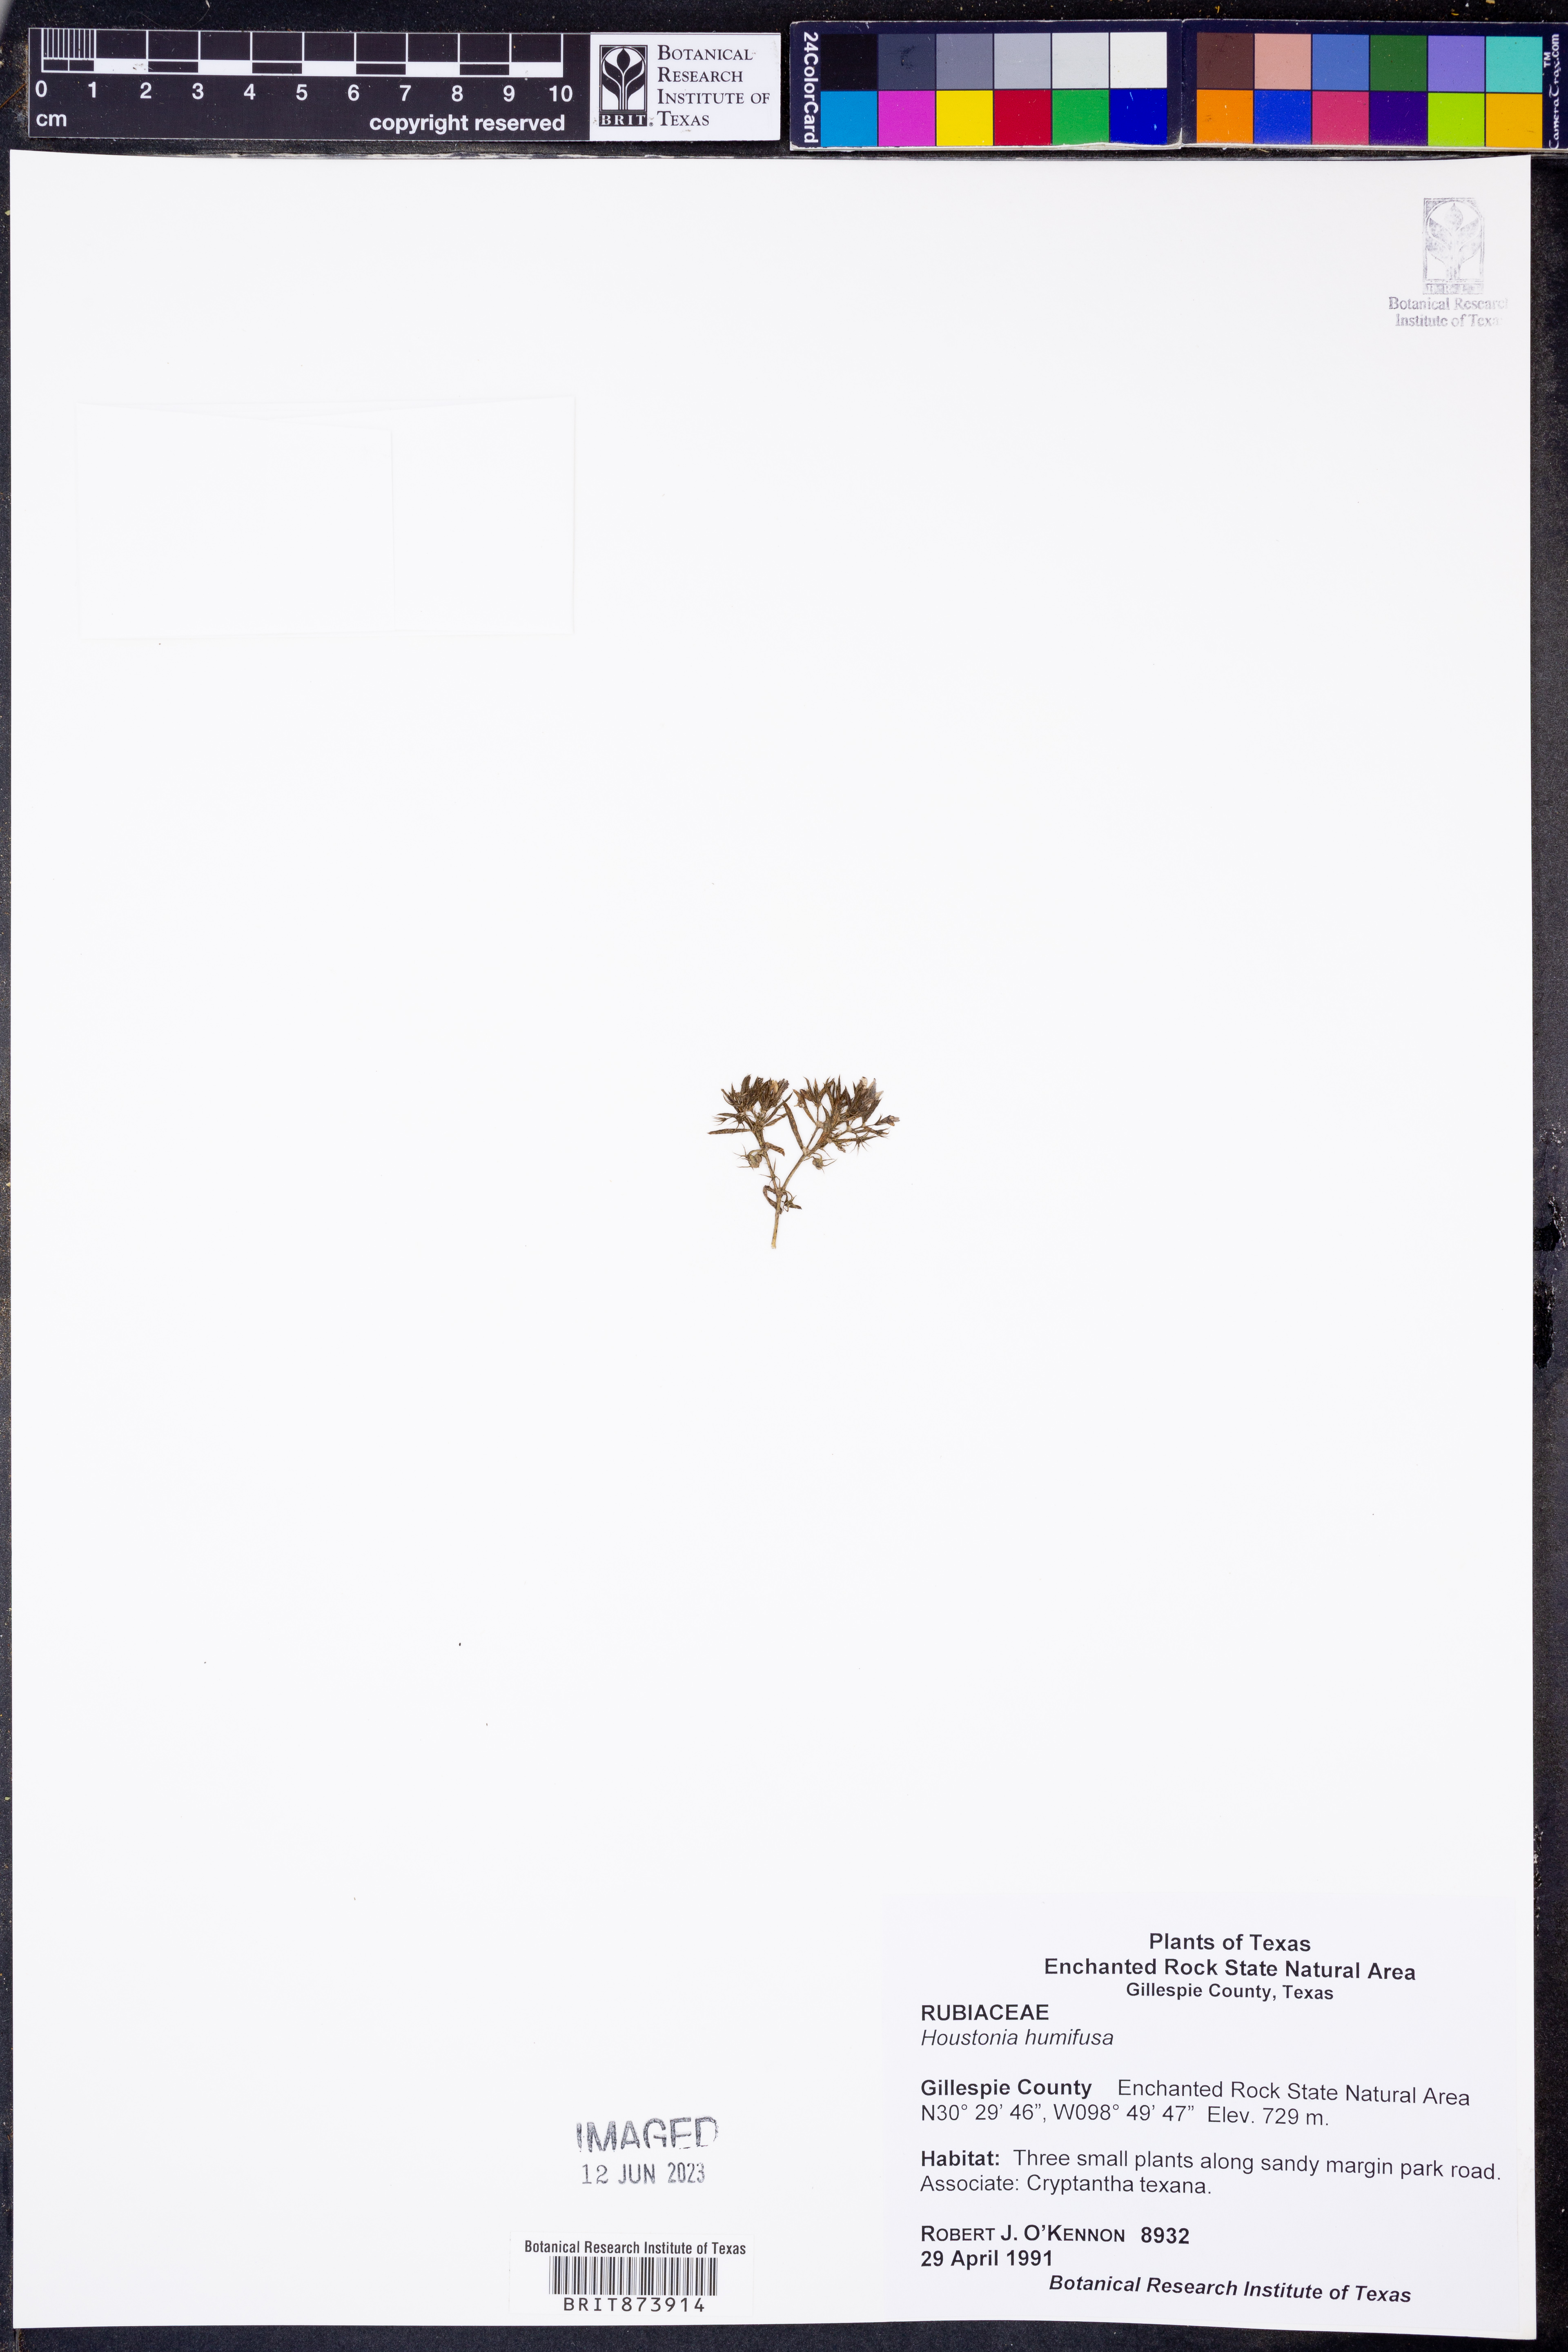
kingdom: Plantae
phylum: Tracheophyta
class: Magnoliopsida
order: Gentianales
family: Rubiaceae
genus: Houstonia
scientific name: Houstonia humifusa
